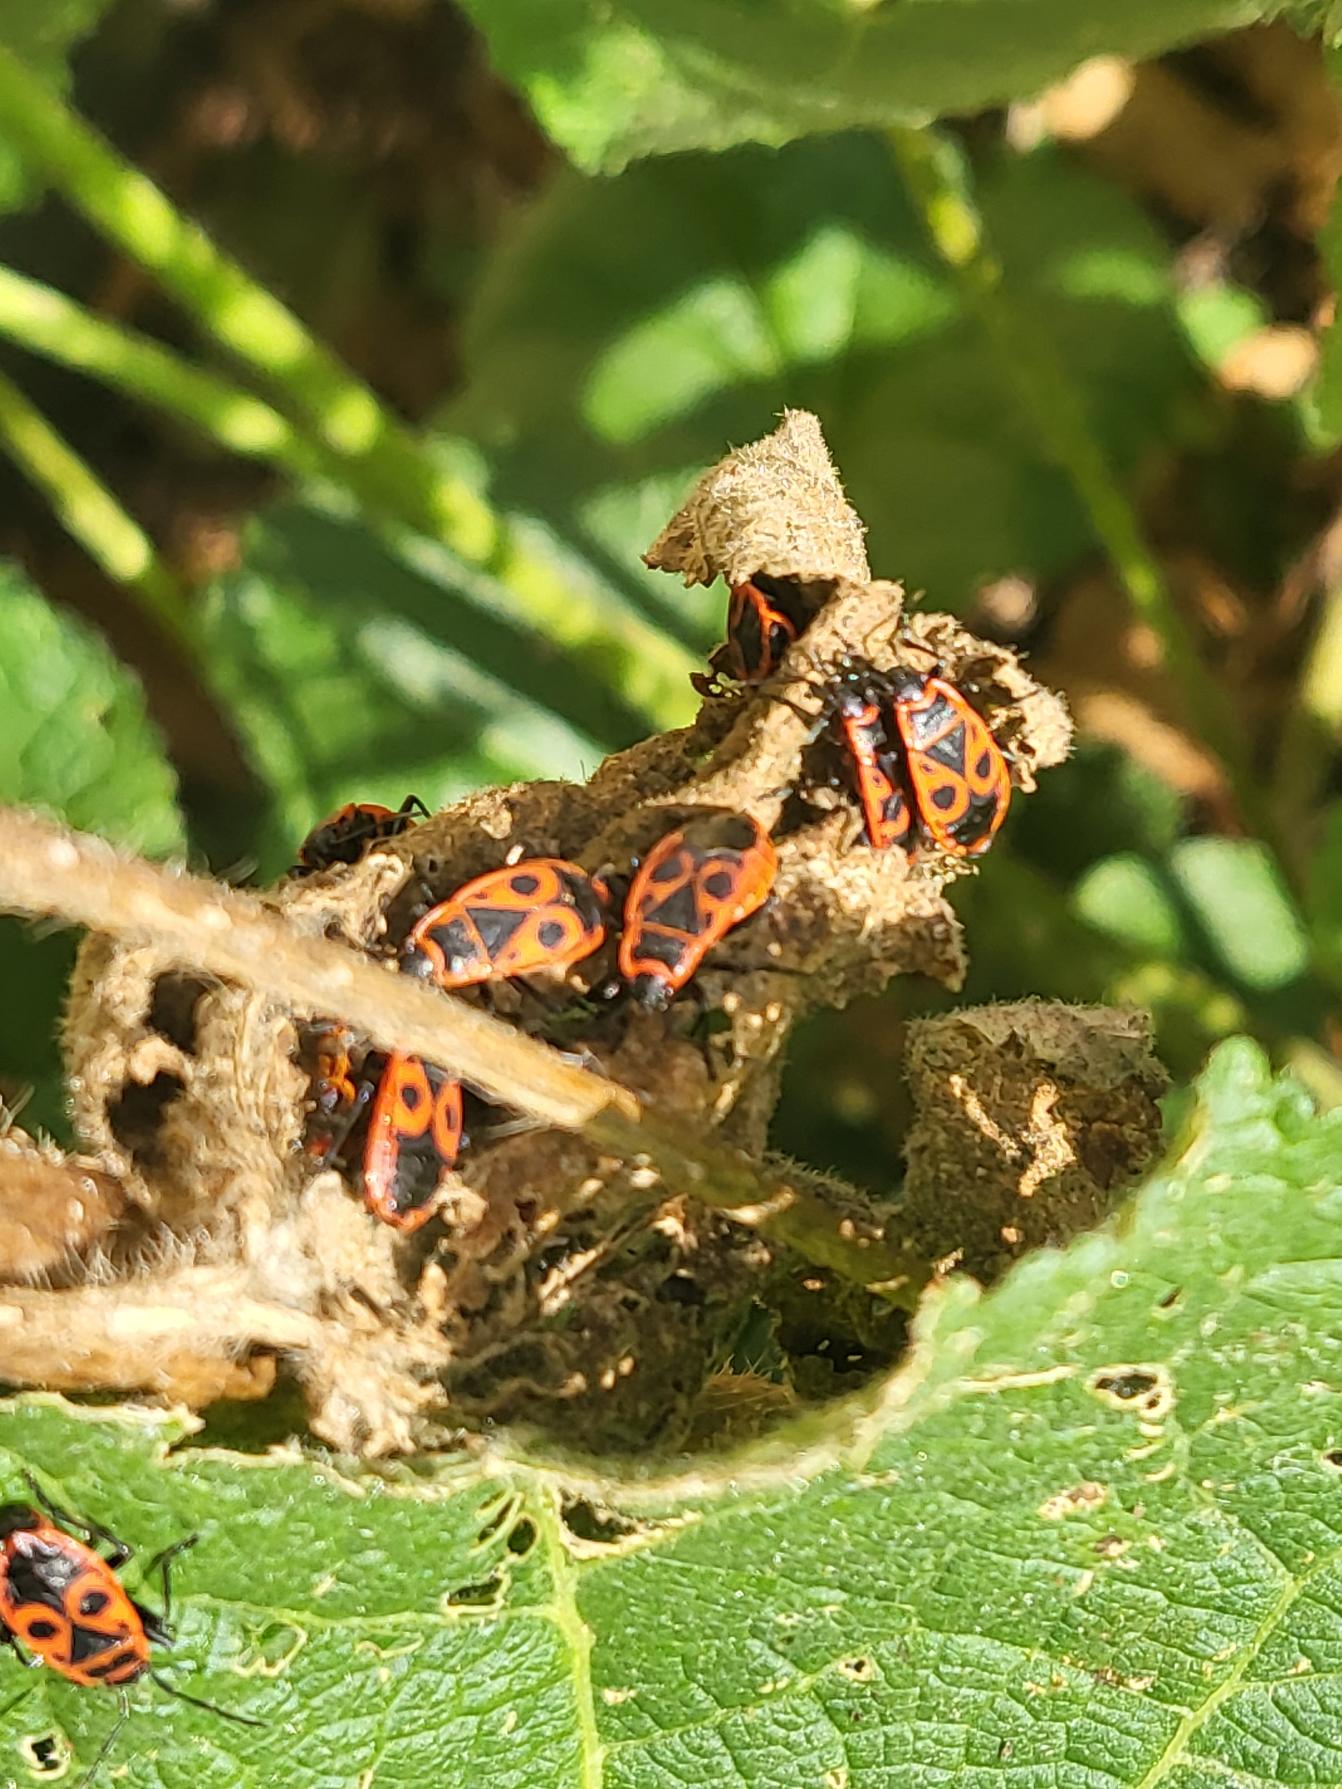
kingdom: Animalia
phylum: Arthropoda
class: Insecta
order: Hemiptera
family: Pyrrhocoridae
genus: Pyrrhocoris
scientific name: Pyrrhocoris apterus
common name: Ildtæge
